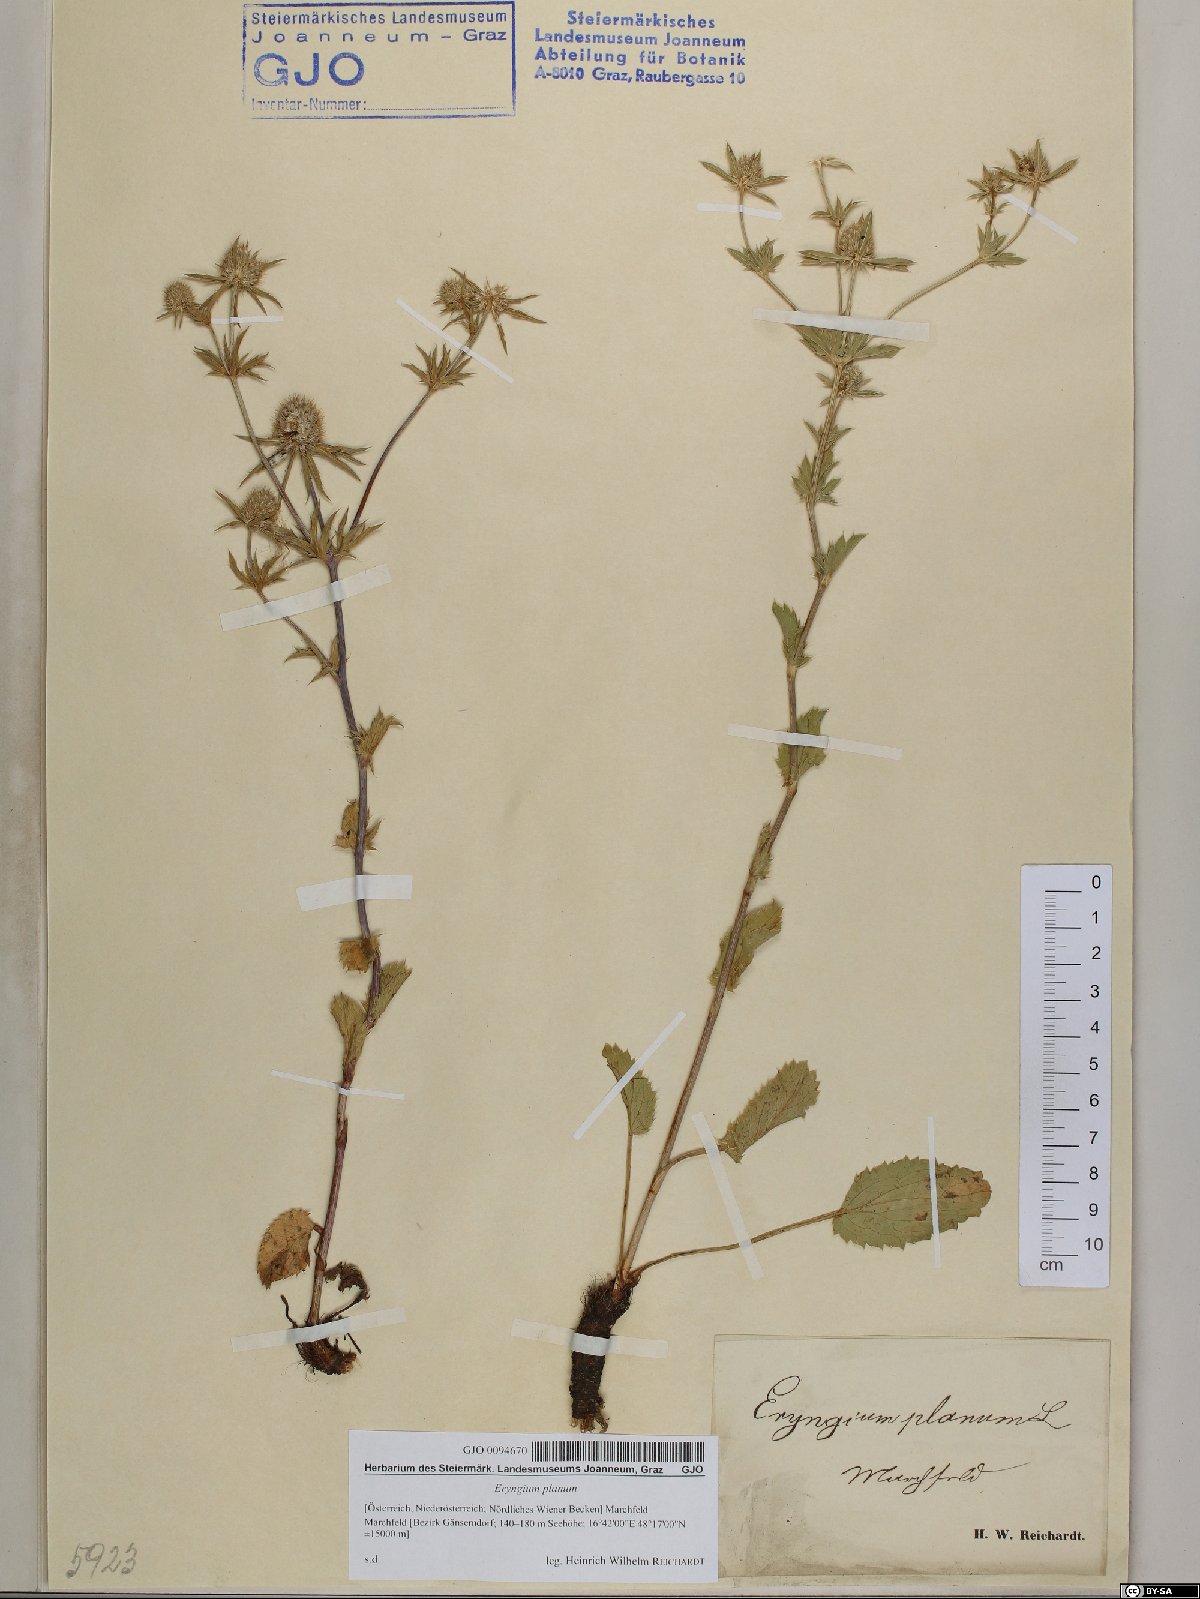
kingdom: Plantae
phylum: Tracheophyta
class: Magnoliopsida
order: Apiales
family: Apiaceae
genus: Eryngium
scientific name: Eryngium planum
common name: Blue eryngo
